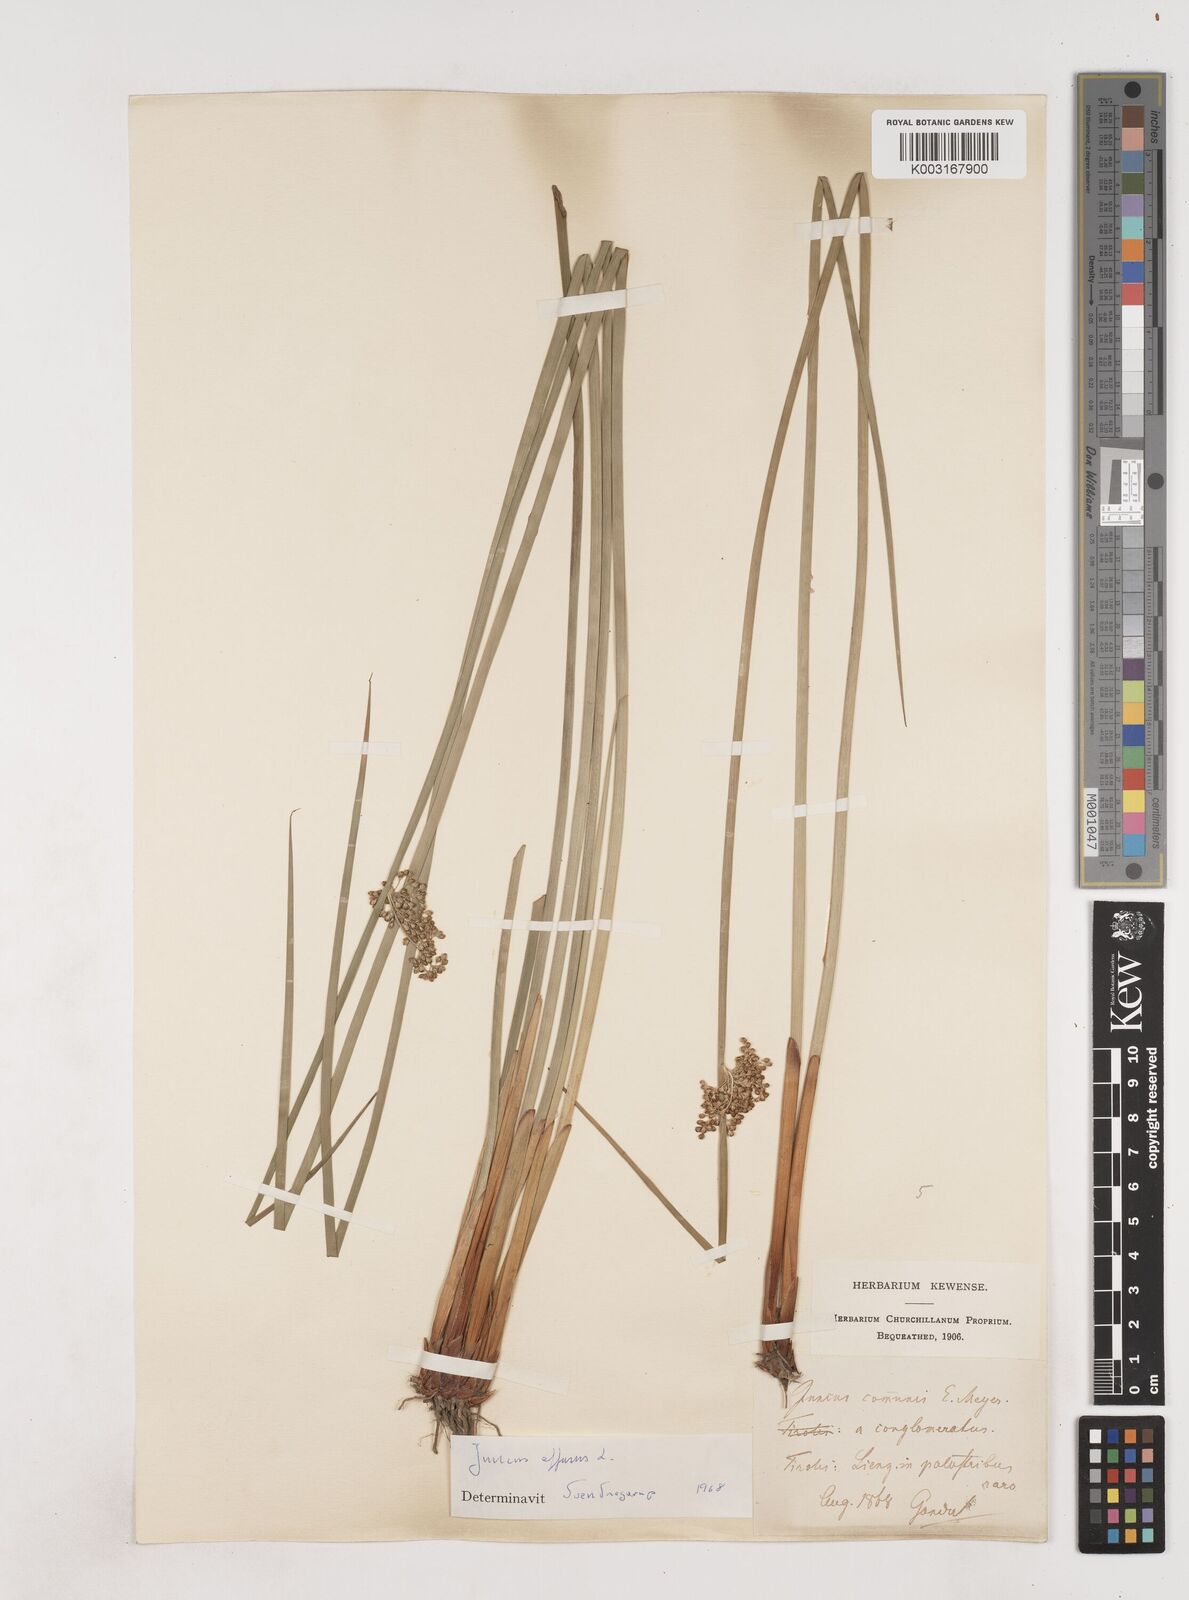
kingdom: Plantae
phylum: Tracheophyta
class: Liliopsida
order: Poales
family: Juncaceae
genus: Juncus
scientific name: Juncus effusus
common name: Soft rush
